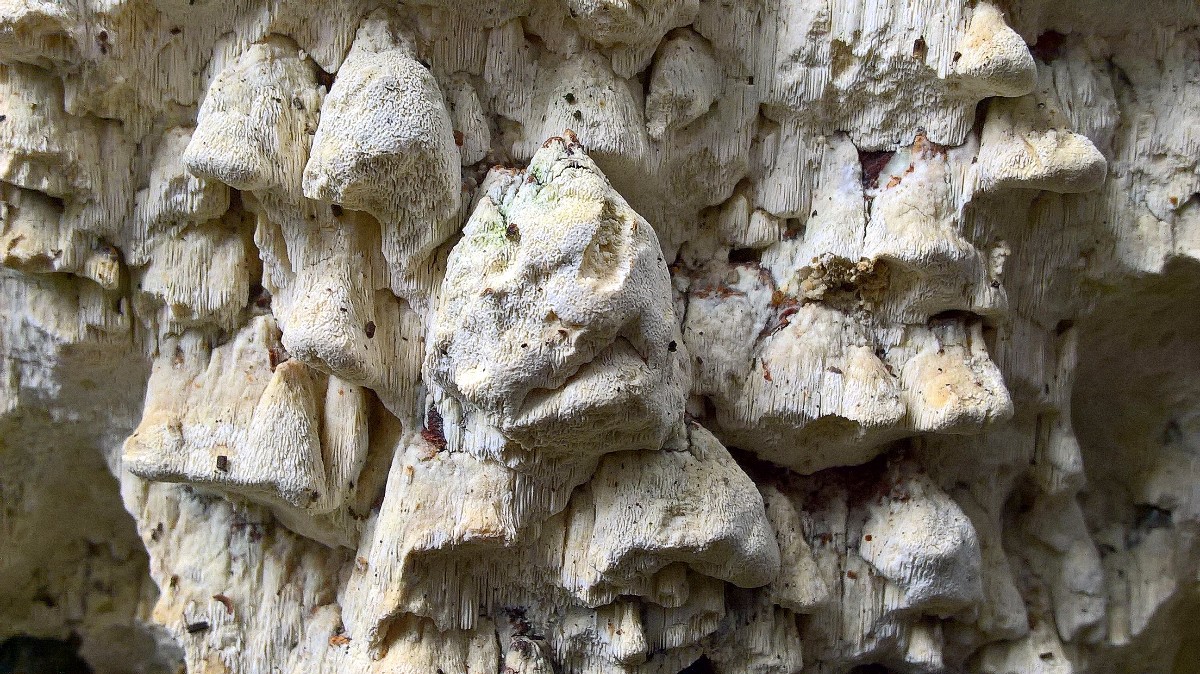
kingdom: Fungi
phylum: Basidiomycota
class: Agaricomycetes
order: Polyporales
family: Fomitopsidaceae
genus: Daedalea
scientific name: Daedalea xantha
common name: gul sejporesvamp
